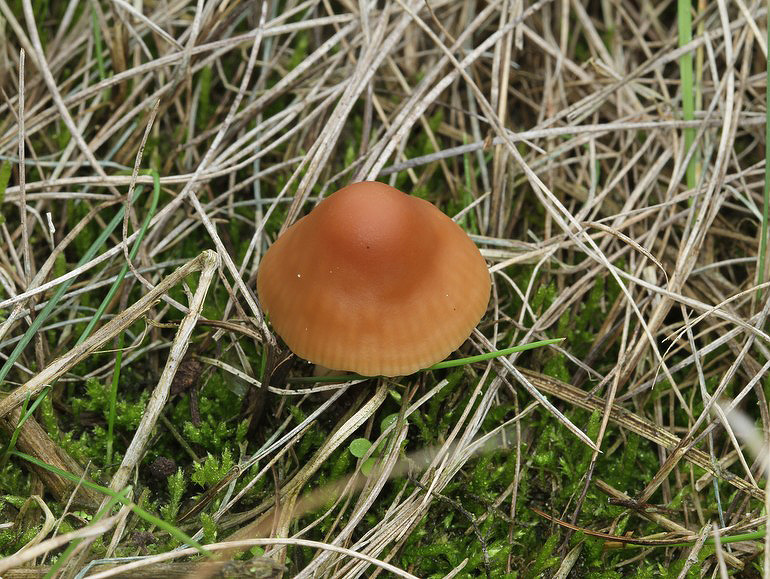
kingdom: Fungi
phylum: Basidiomycota
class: Agaricomycetes
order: Agaricales
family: Marasmiaceae
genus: Marasmius
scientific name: Marasmius oreades
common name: elledans-bruskhat
